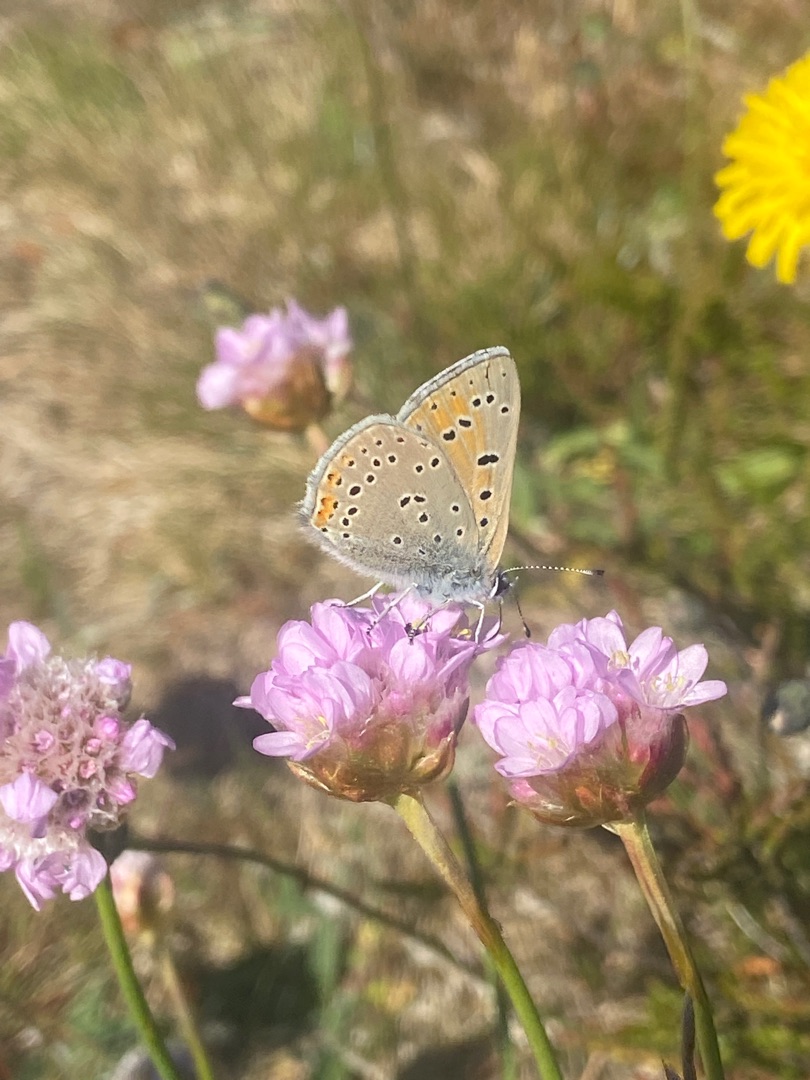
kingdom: Animalia
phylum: Arthropoda
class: Insecta
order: Lepidoptera
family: Lycaenidae
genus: Palaeochrysophanus
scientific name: Palaeochrysophanus hippothoe
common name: Violetrandet ildfugl
